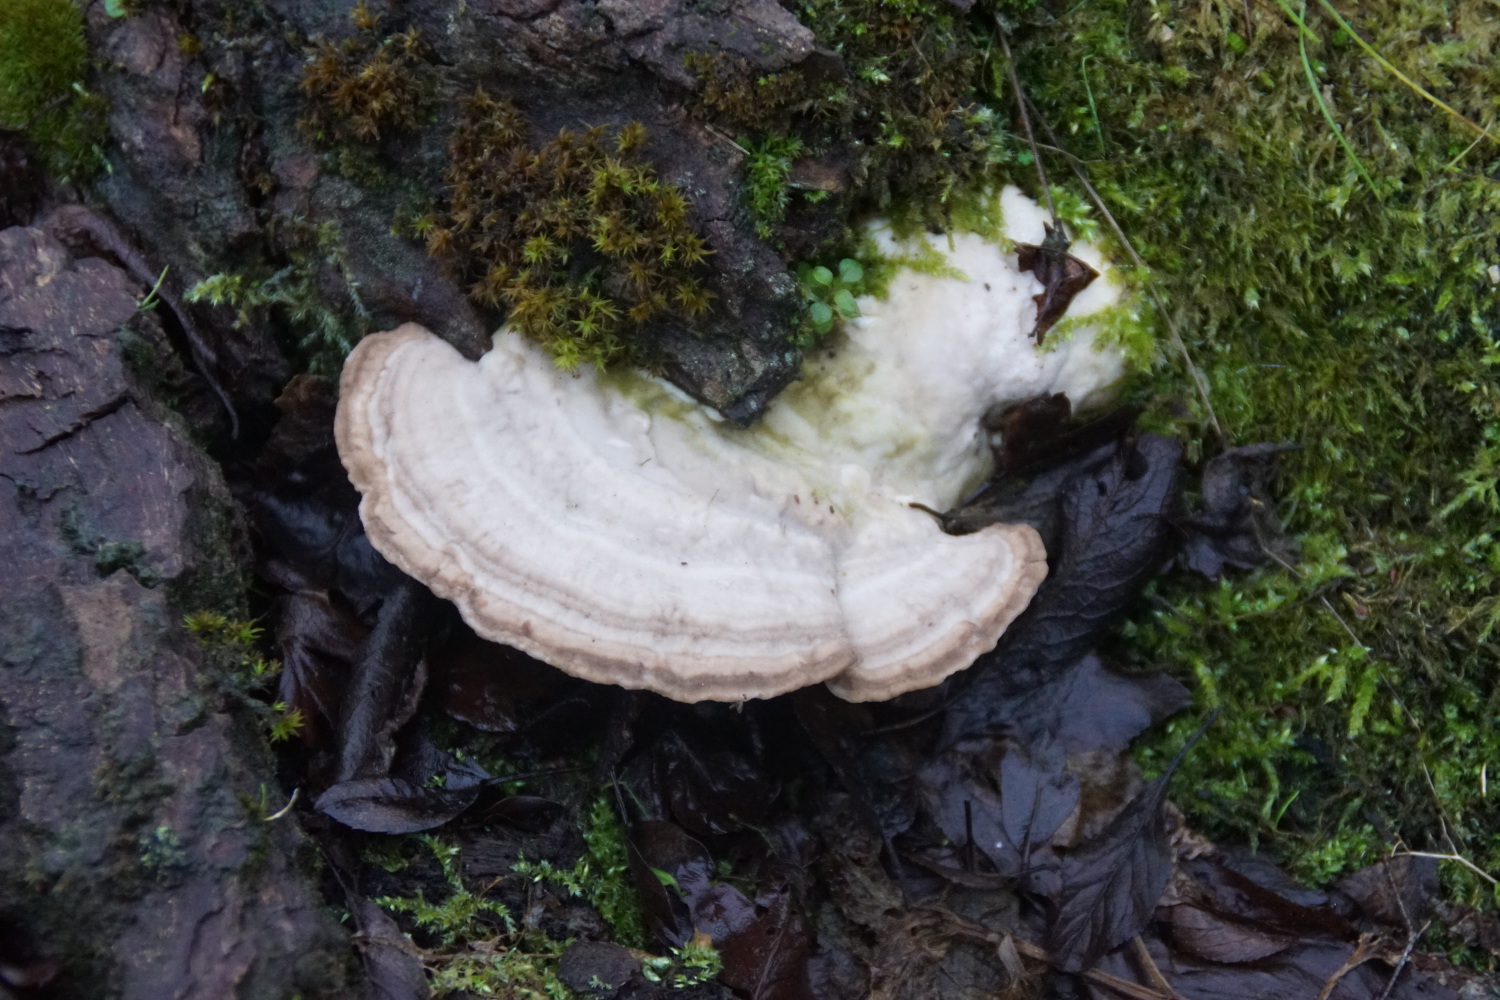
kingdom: Fungi
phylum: Basidiomycota
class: Agaricomycetes
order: Polyporales
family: Polyporaceae
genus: Trametes
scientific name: Trametes gibbosa
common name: puklet læderporesvamp
